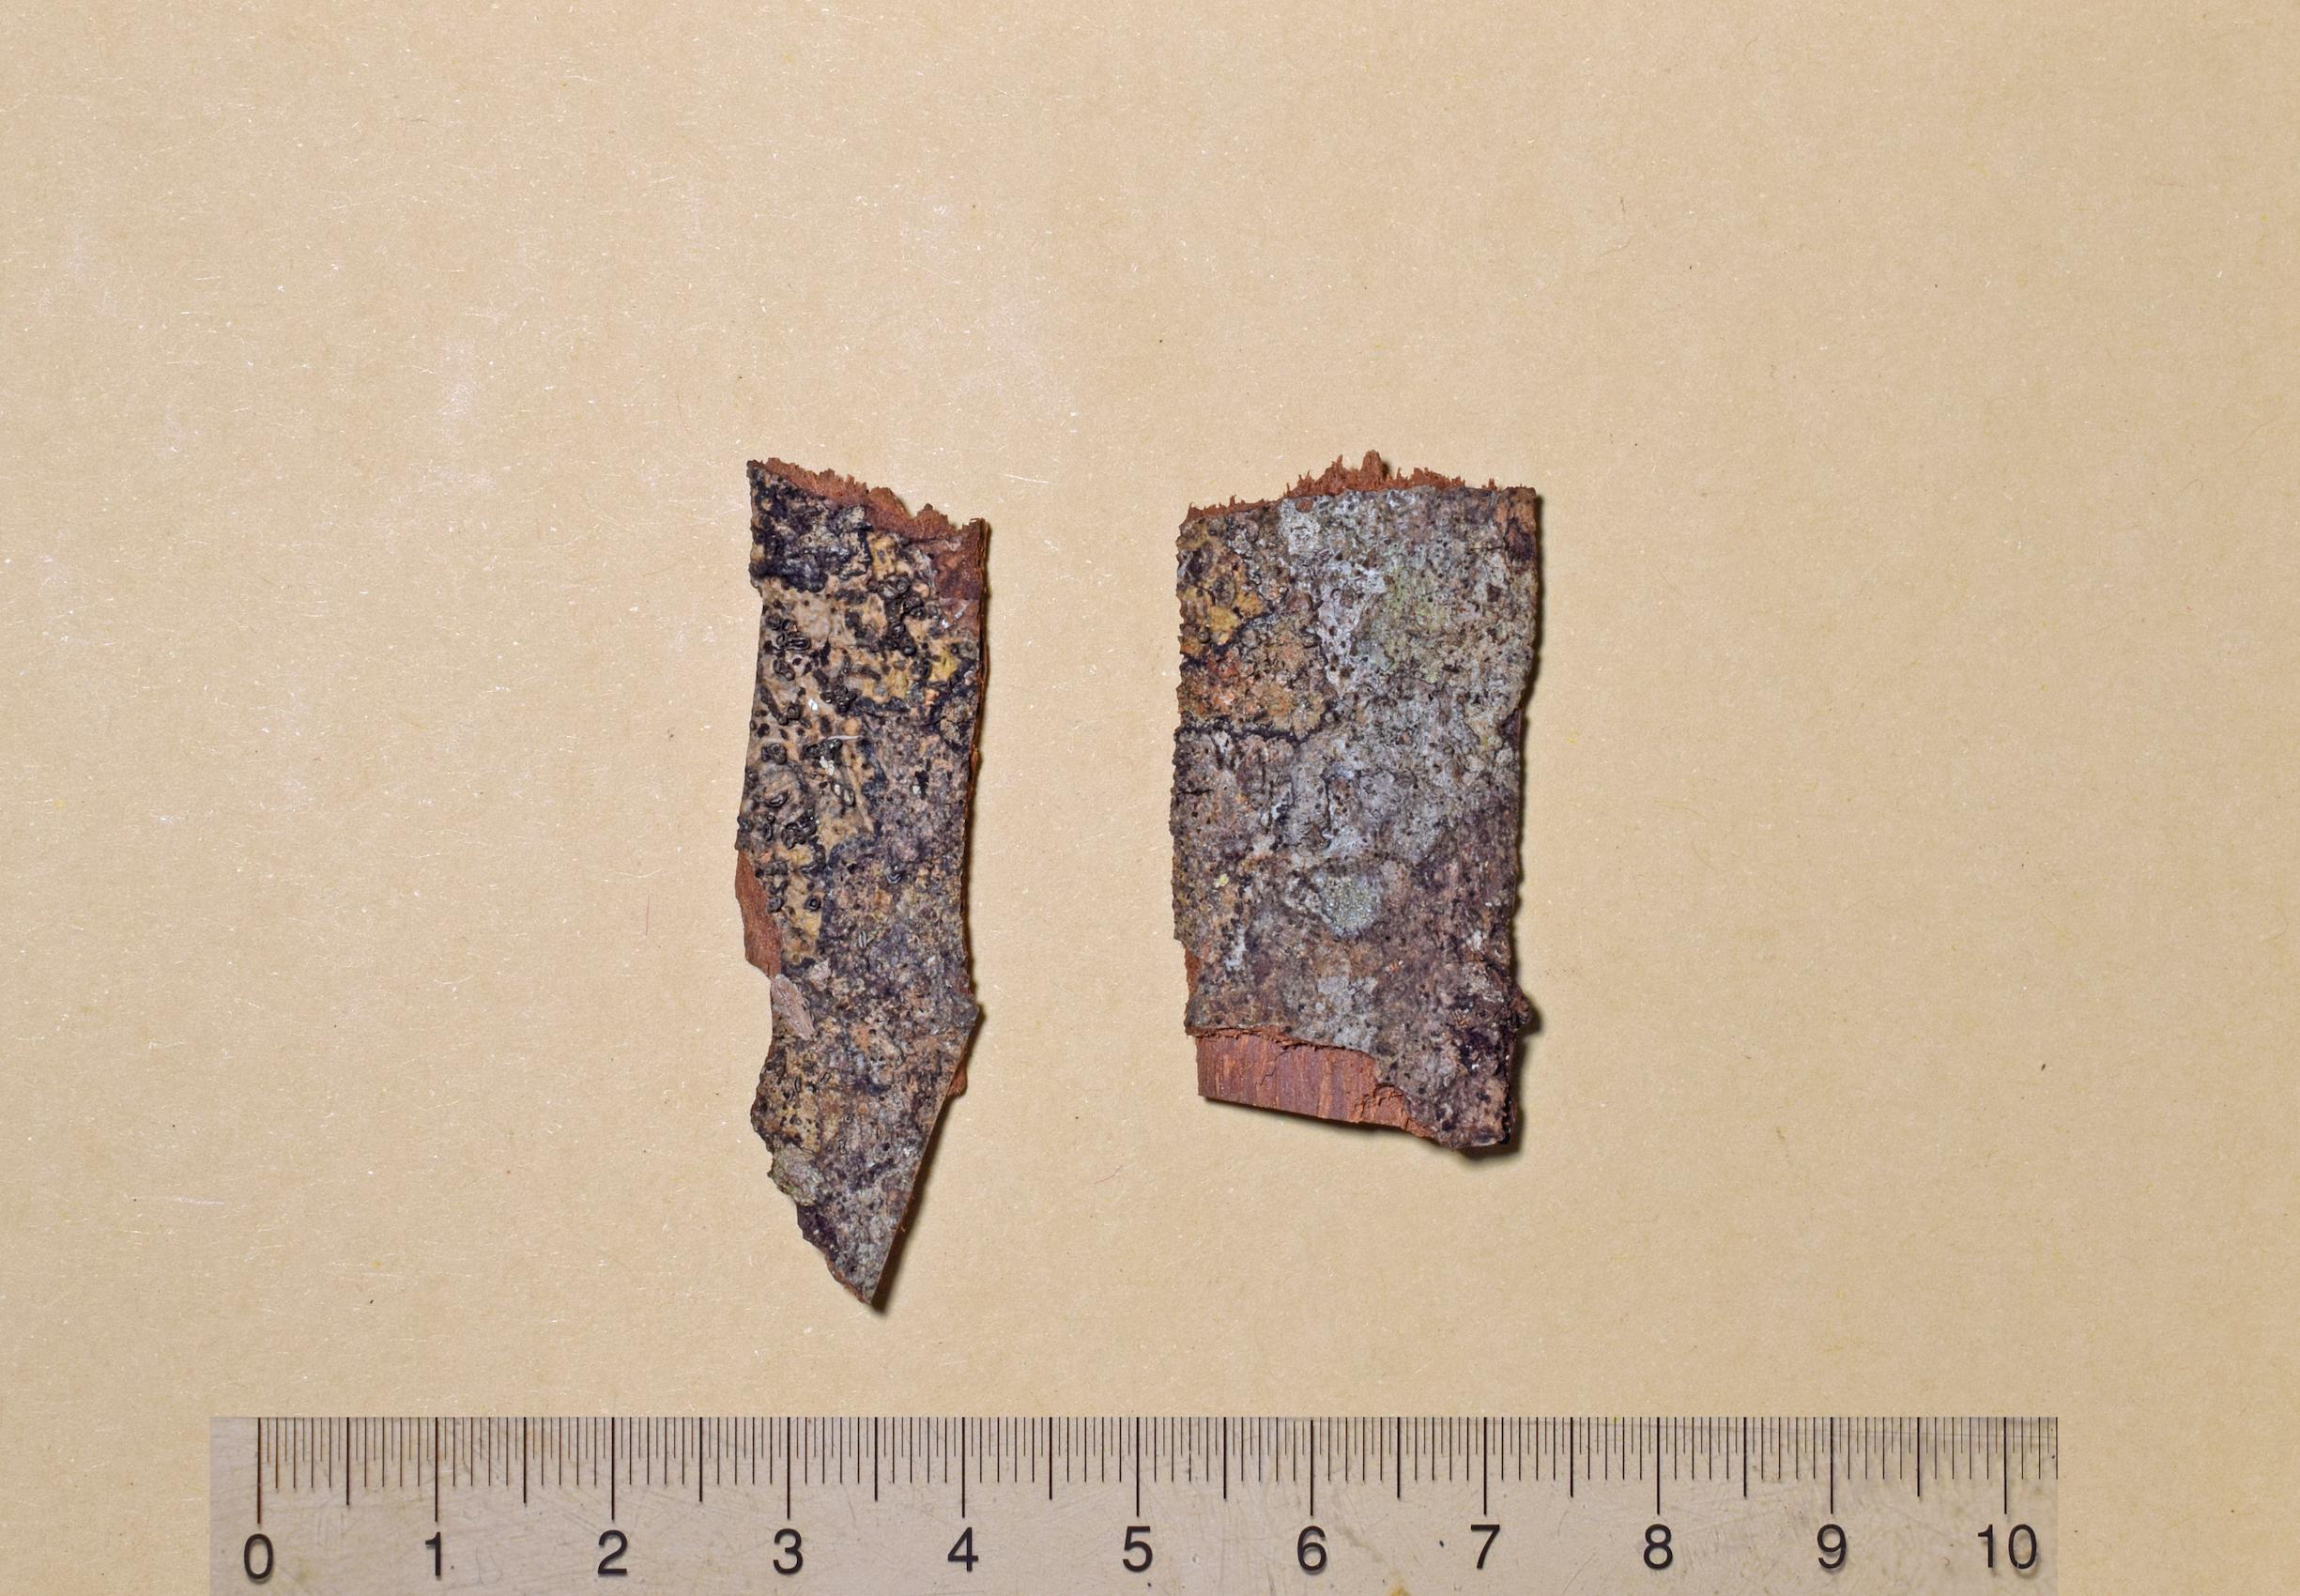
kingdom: Fungi
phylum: Ascomycota
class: Lecanoromycetes
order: Ostropales
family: Graphidaceae
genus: Thecaria
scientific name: Thecaria
